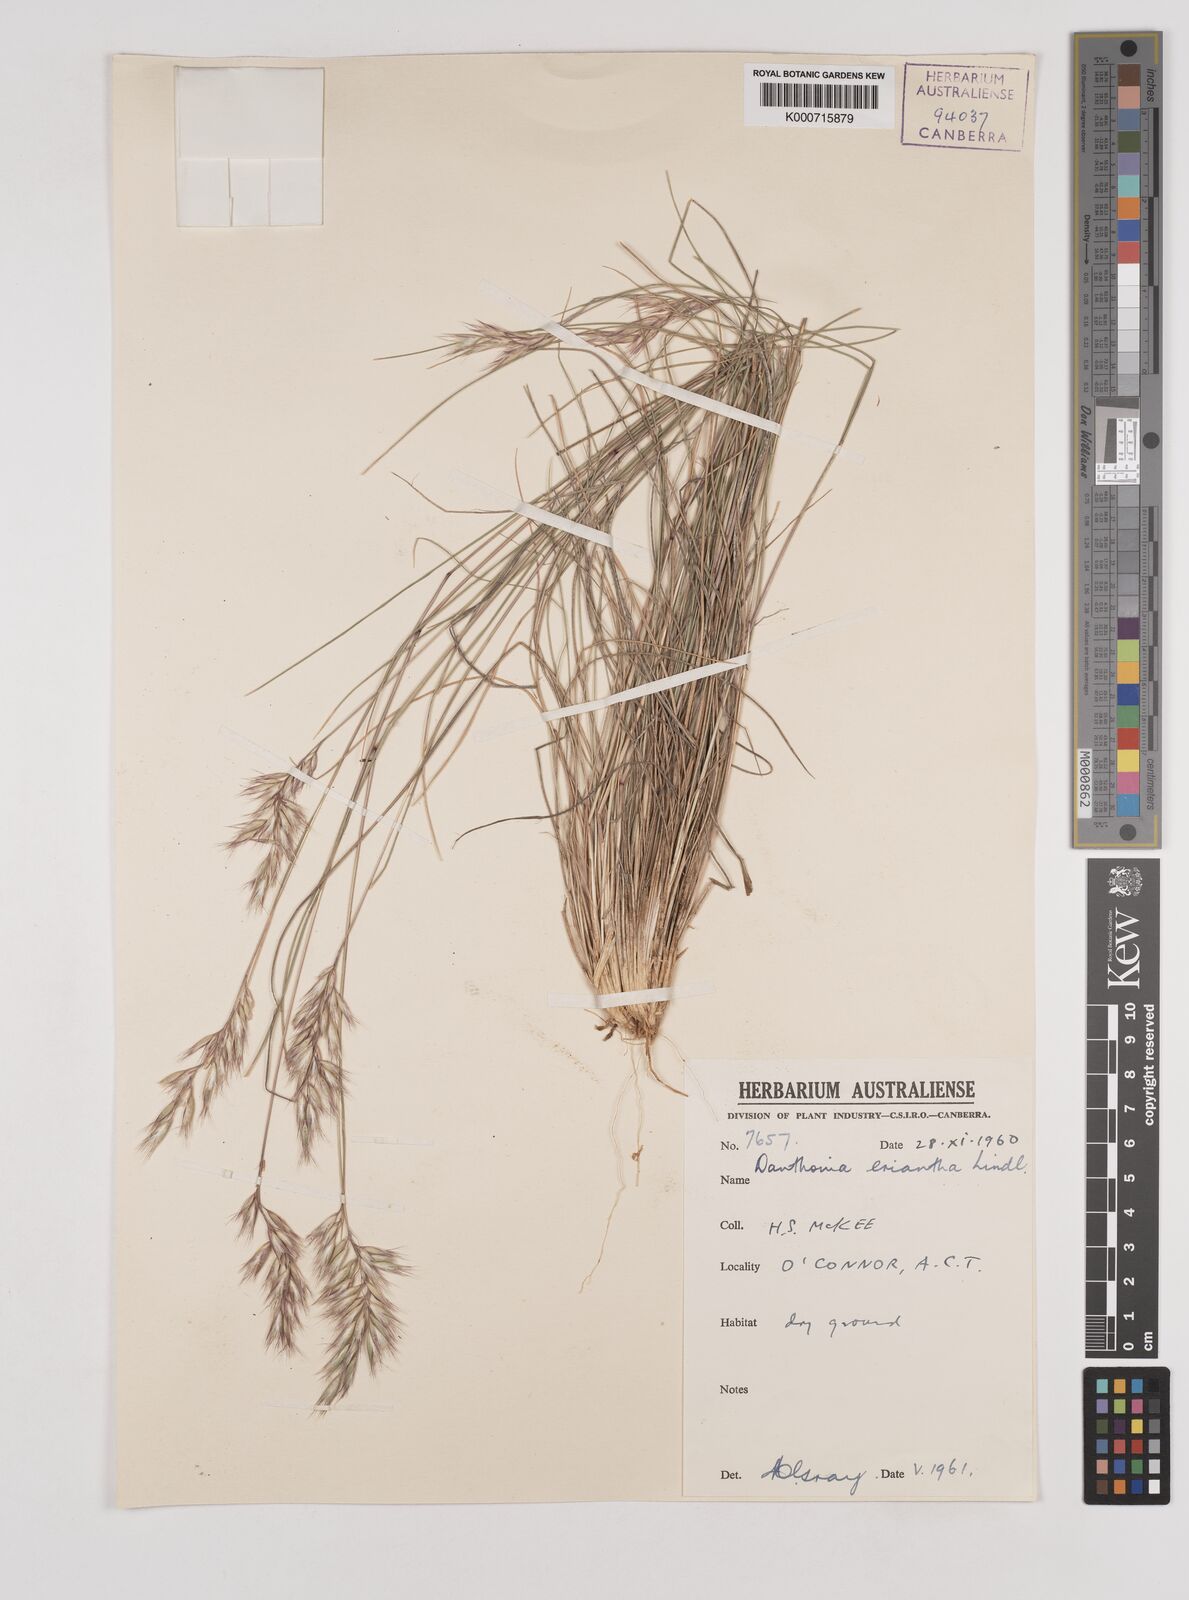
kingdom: Plantae
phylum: Tracheophyta
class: Liliopsida
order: Poales
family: Poaceae
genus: Rytidosperma
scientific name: Rytidosperma erianthum
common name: Hill wallaby grass
